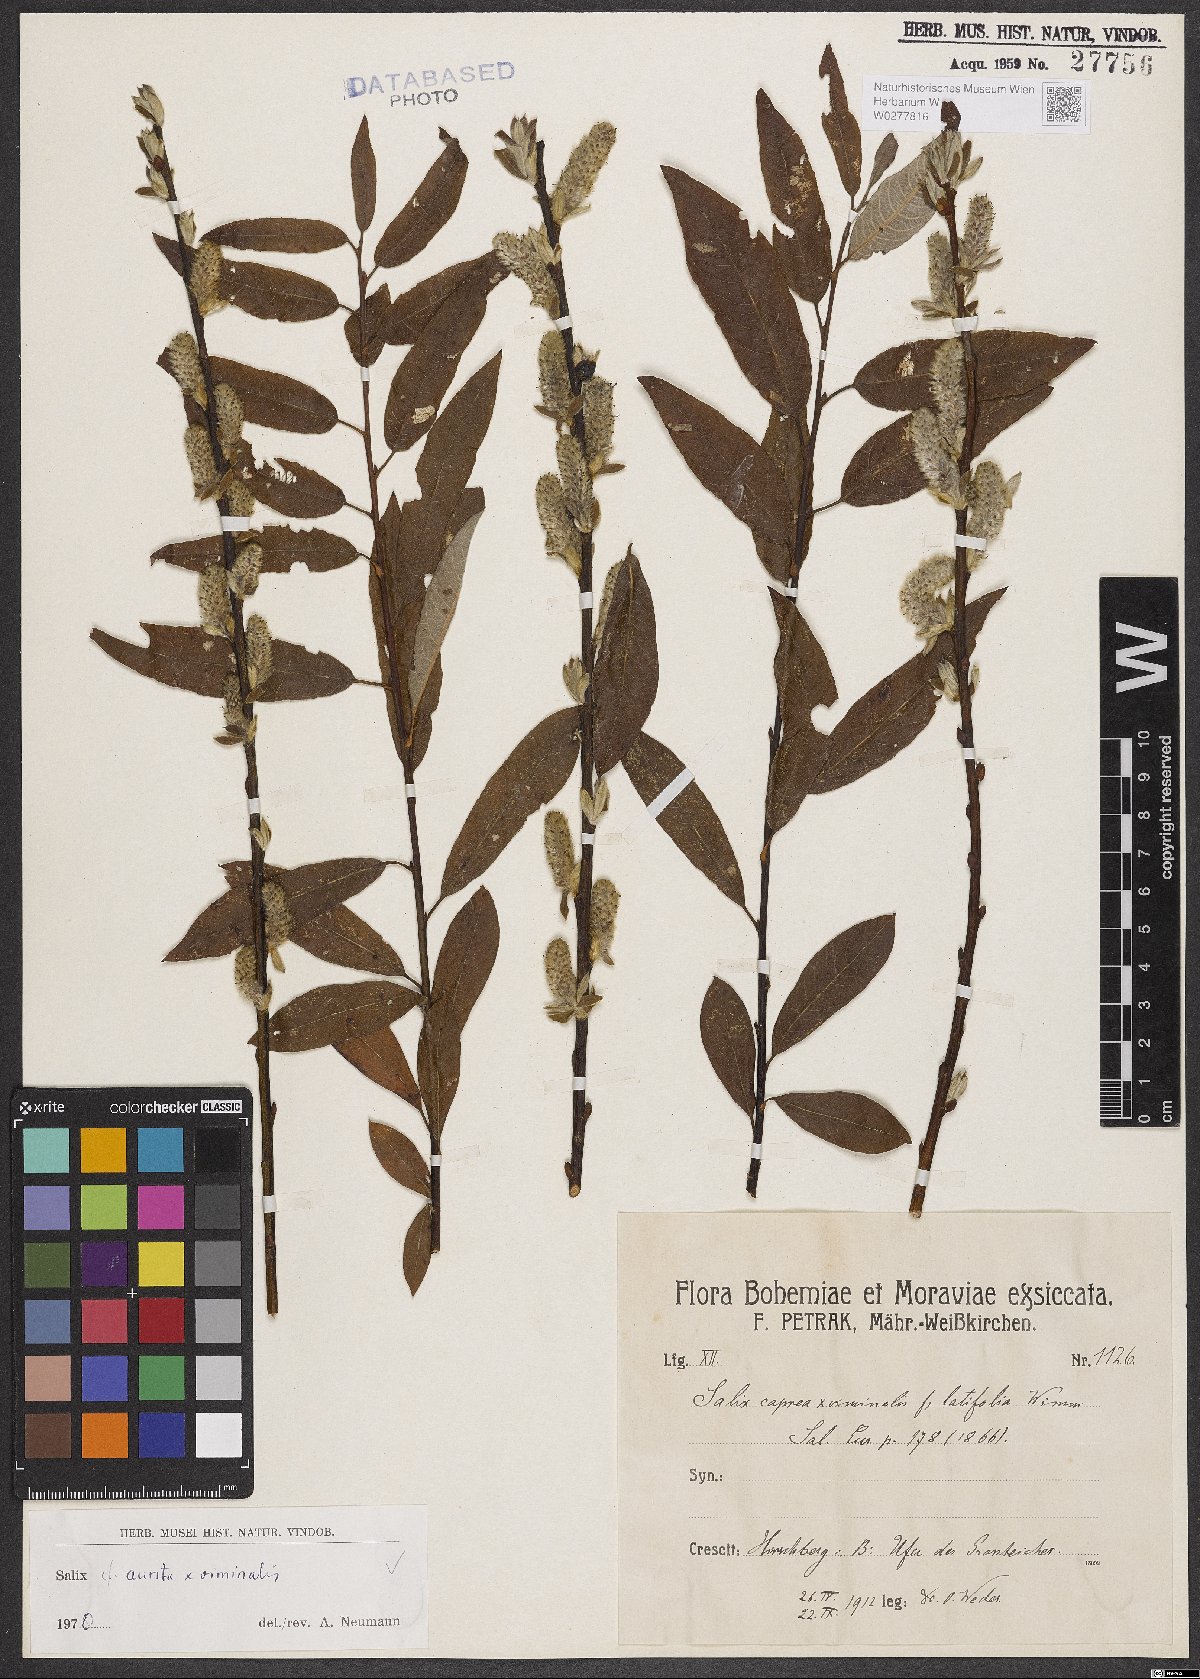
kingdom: Plantae
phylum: Tracheophyta
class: Magnoliopsida
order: Malpighiales
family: Salicaceae
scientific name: Salicaceae
